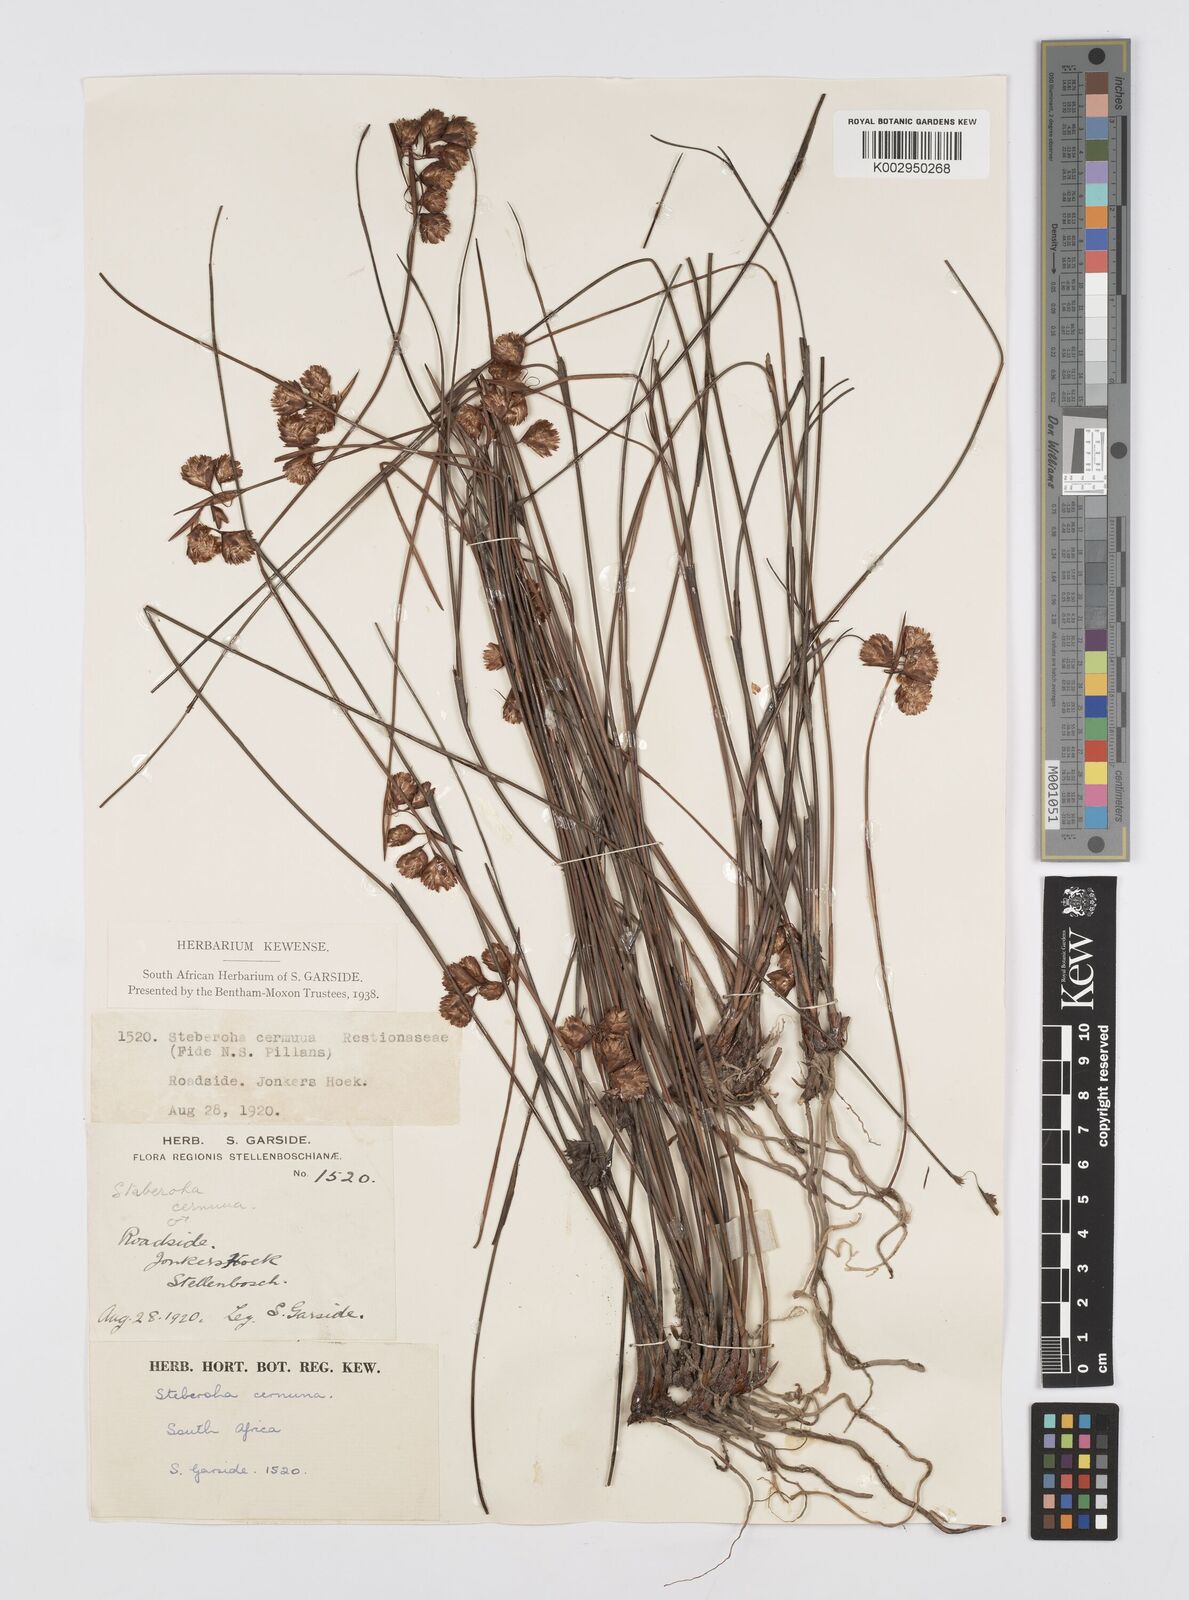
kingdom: Plantae
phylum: Tracheophyta
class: Liliopsida
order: Poales
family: Restionaceae
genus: Staberoha
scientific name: Staberoha cernua
